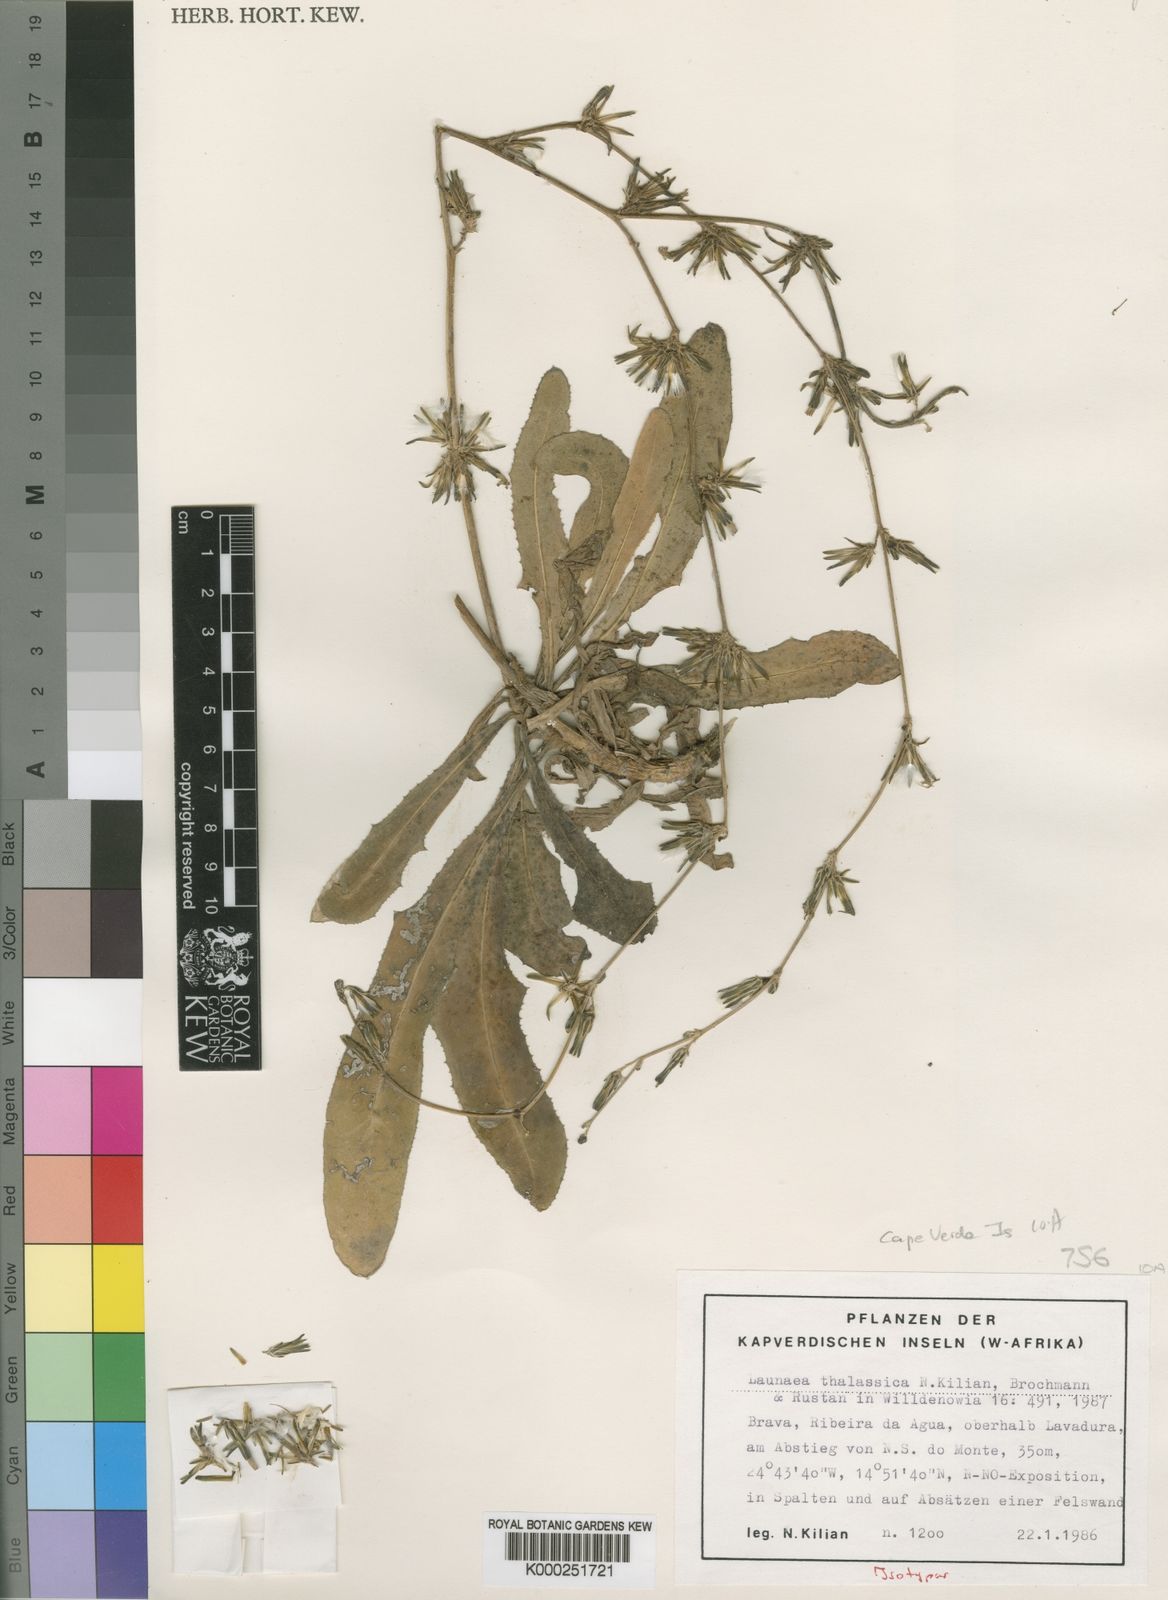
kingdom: Plantae
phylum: Tracheophyta
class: Magnoliopsida
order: Asterales
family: Asteraceae
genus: Launaea
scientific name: Launaea
